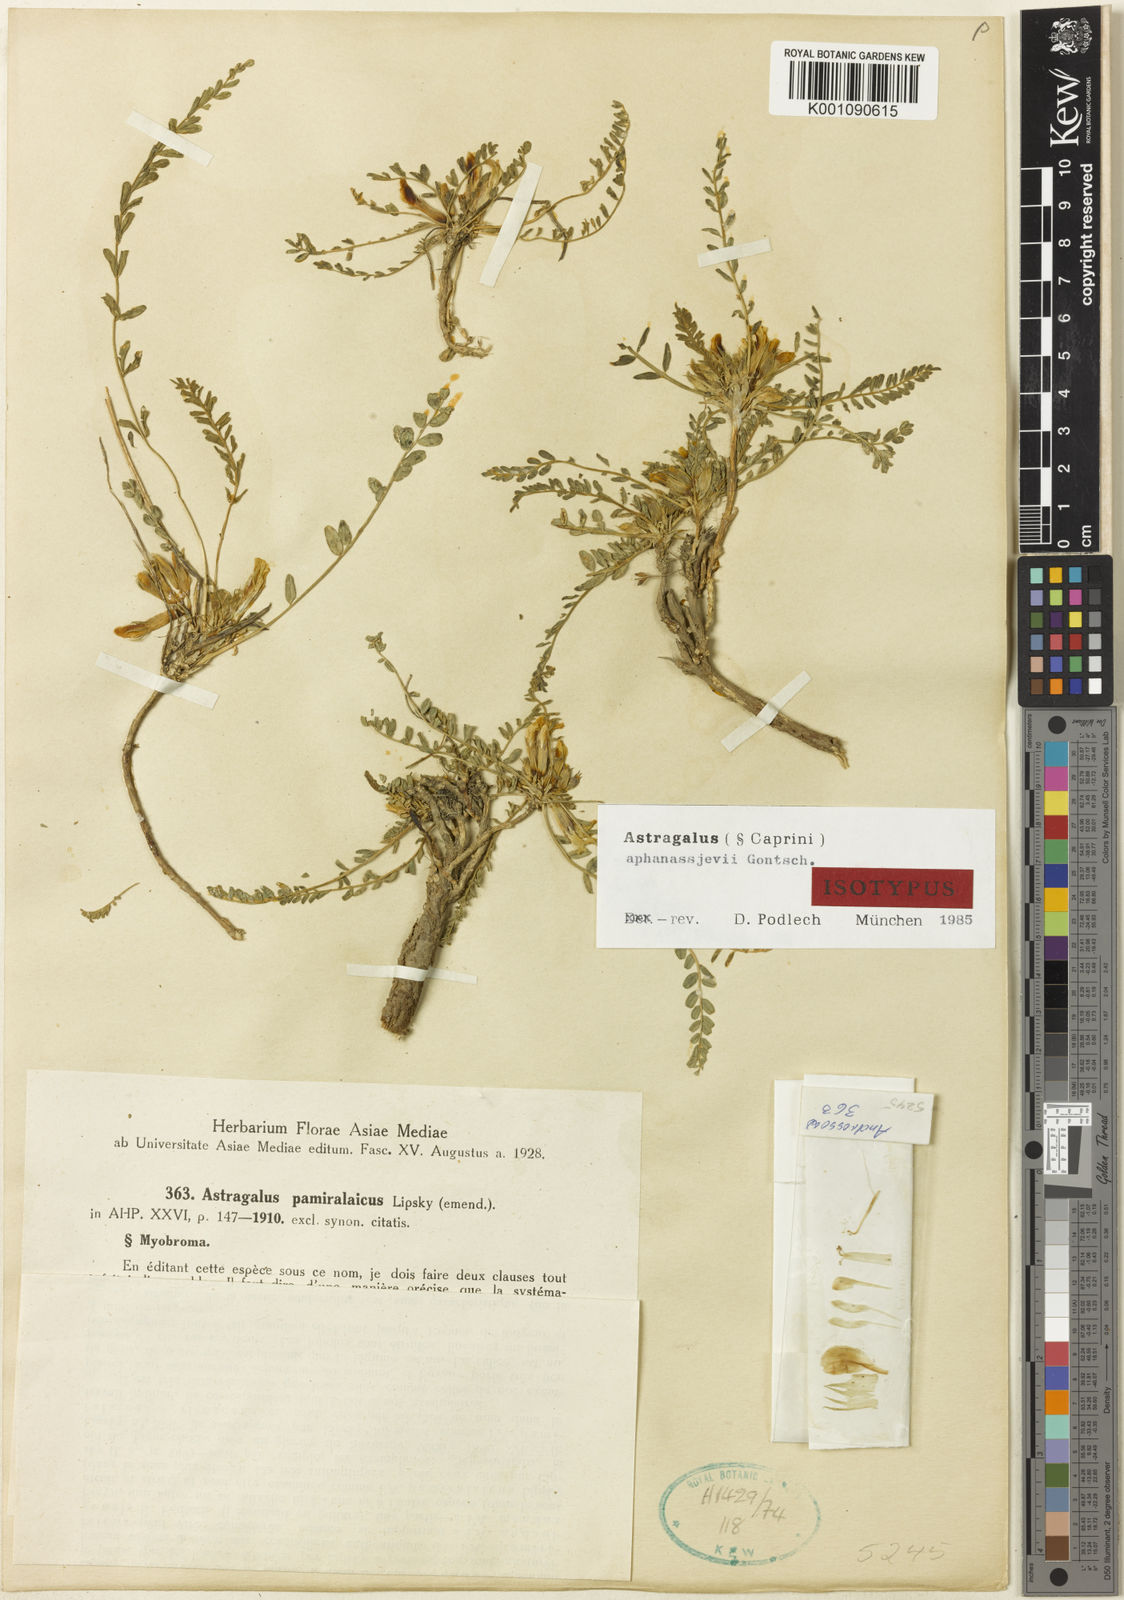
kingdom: Plantae
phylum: Tracheophyta
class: Magnoliopsida
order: Fabales
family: Fabaceae
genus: Astragalus
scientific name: Astragalus
